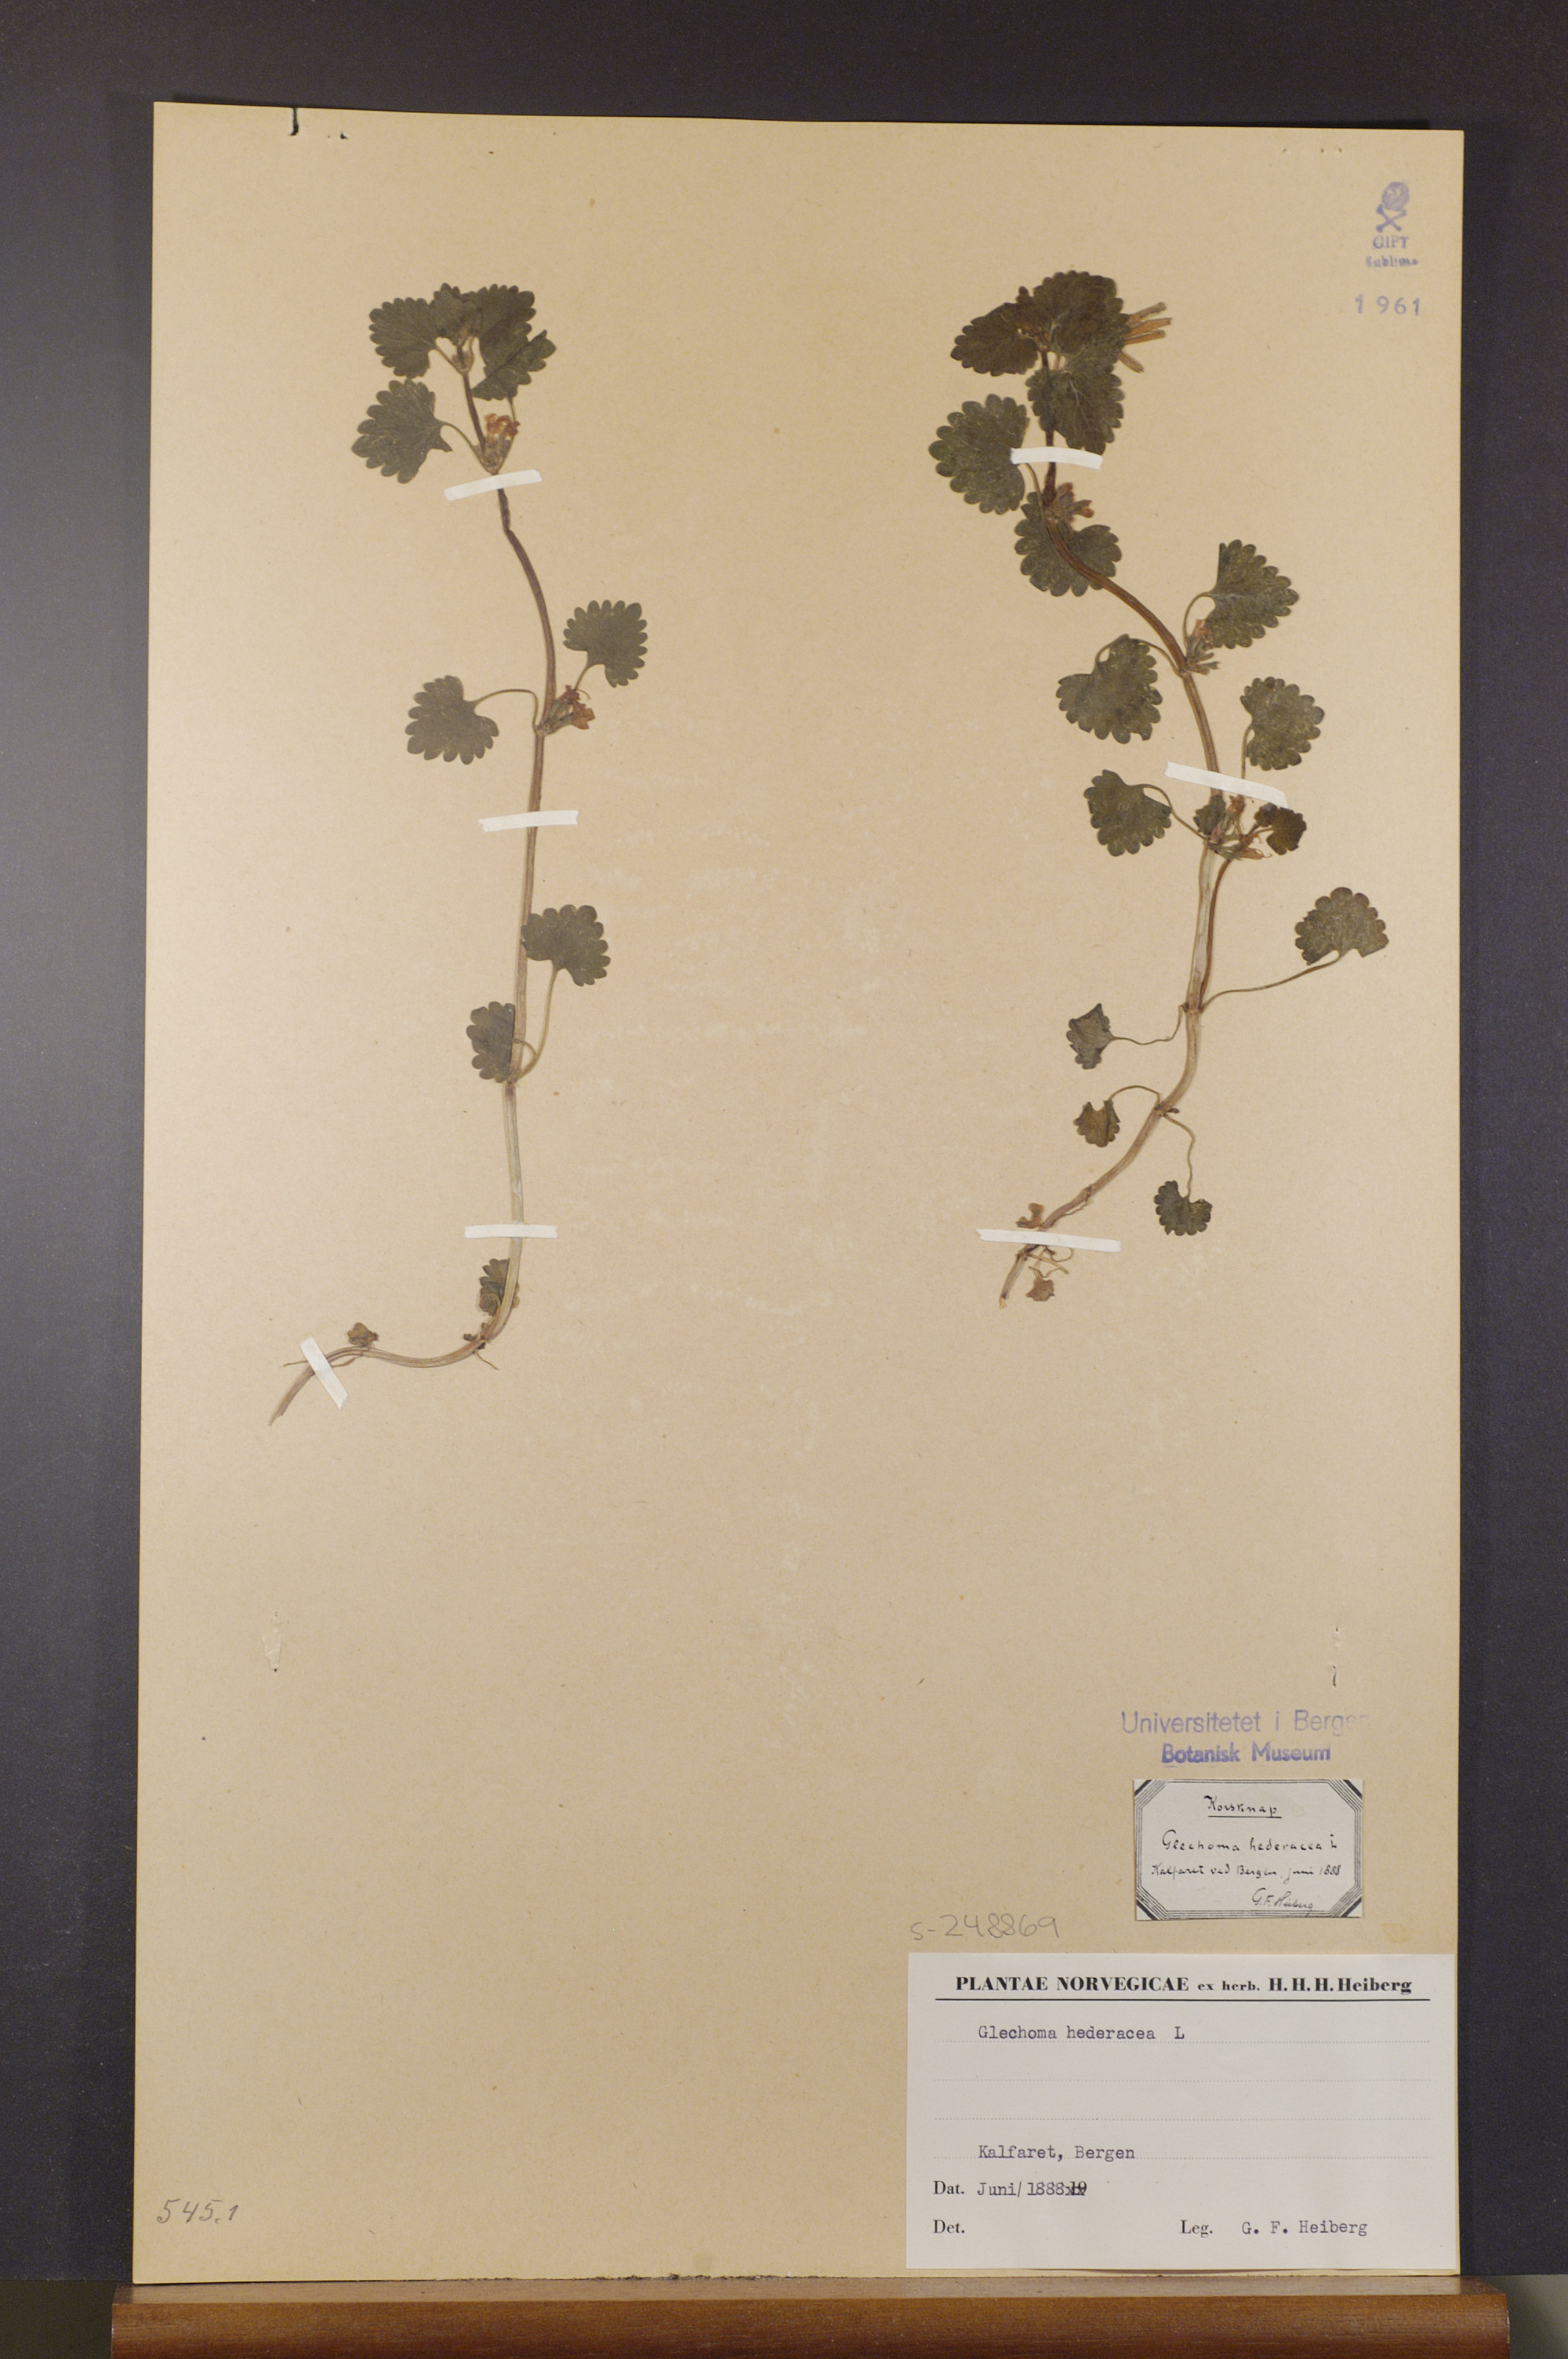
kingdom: Plantae
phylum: Tracheophyta
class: Magnoliopsida
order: Lamiales
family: Lamiaceae
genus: Glechoma
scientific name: Glechoma hederacea
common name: Ground ivy
